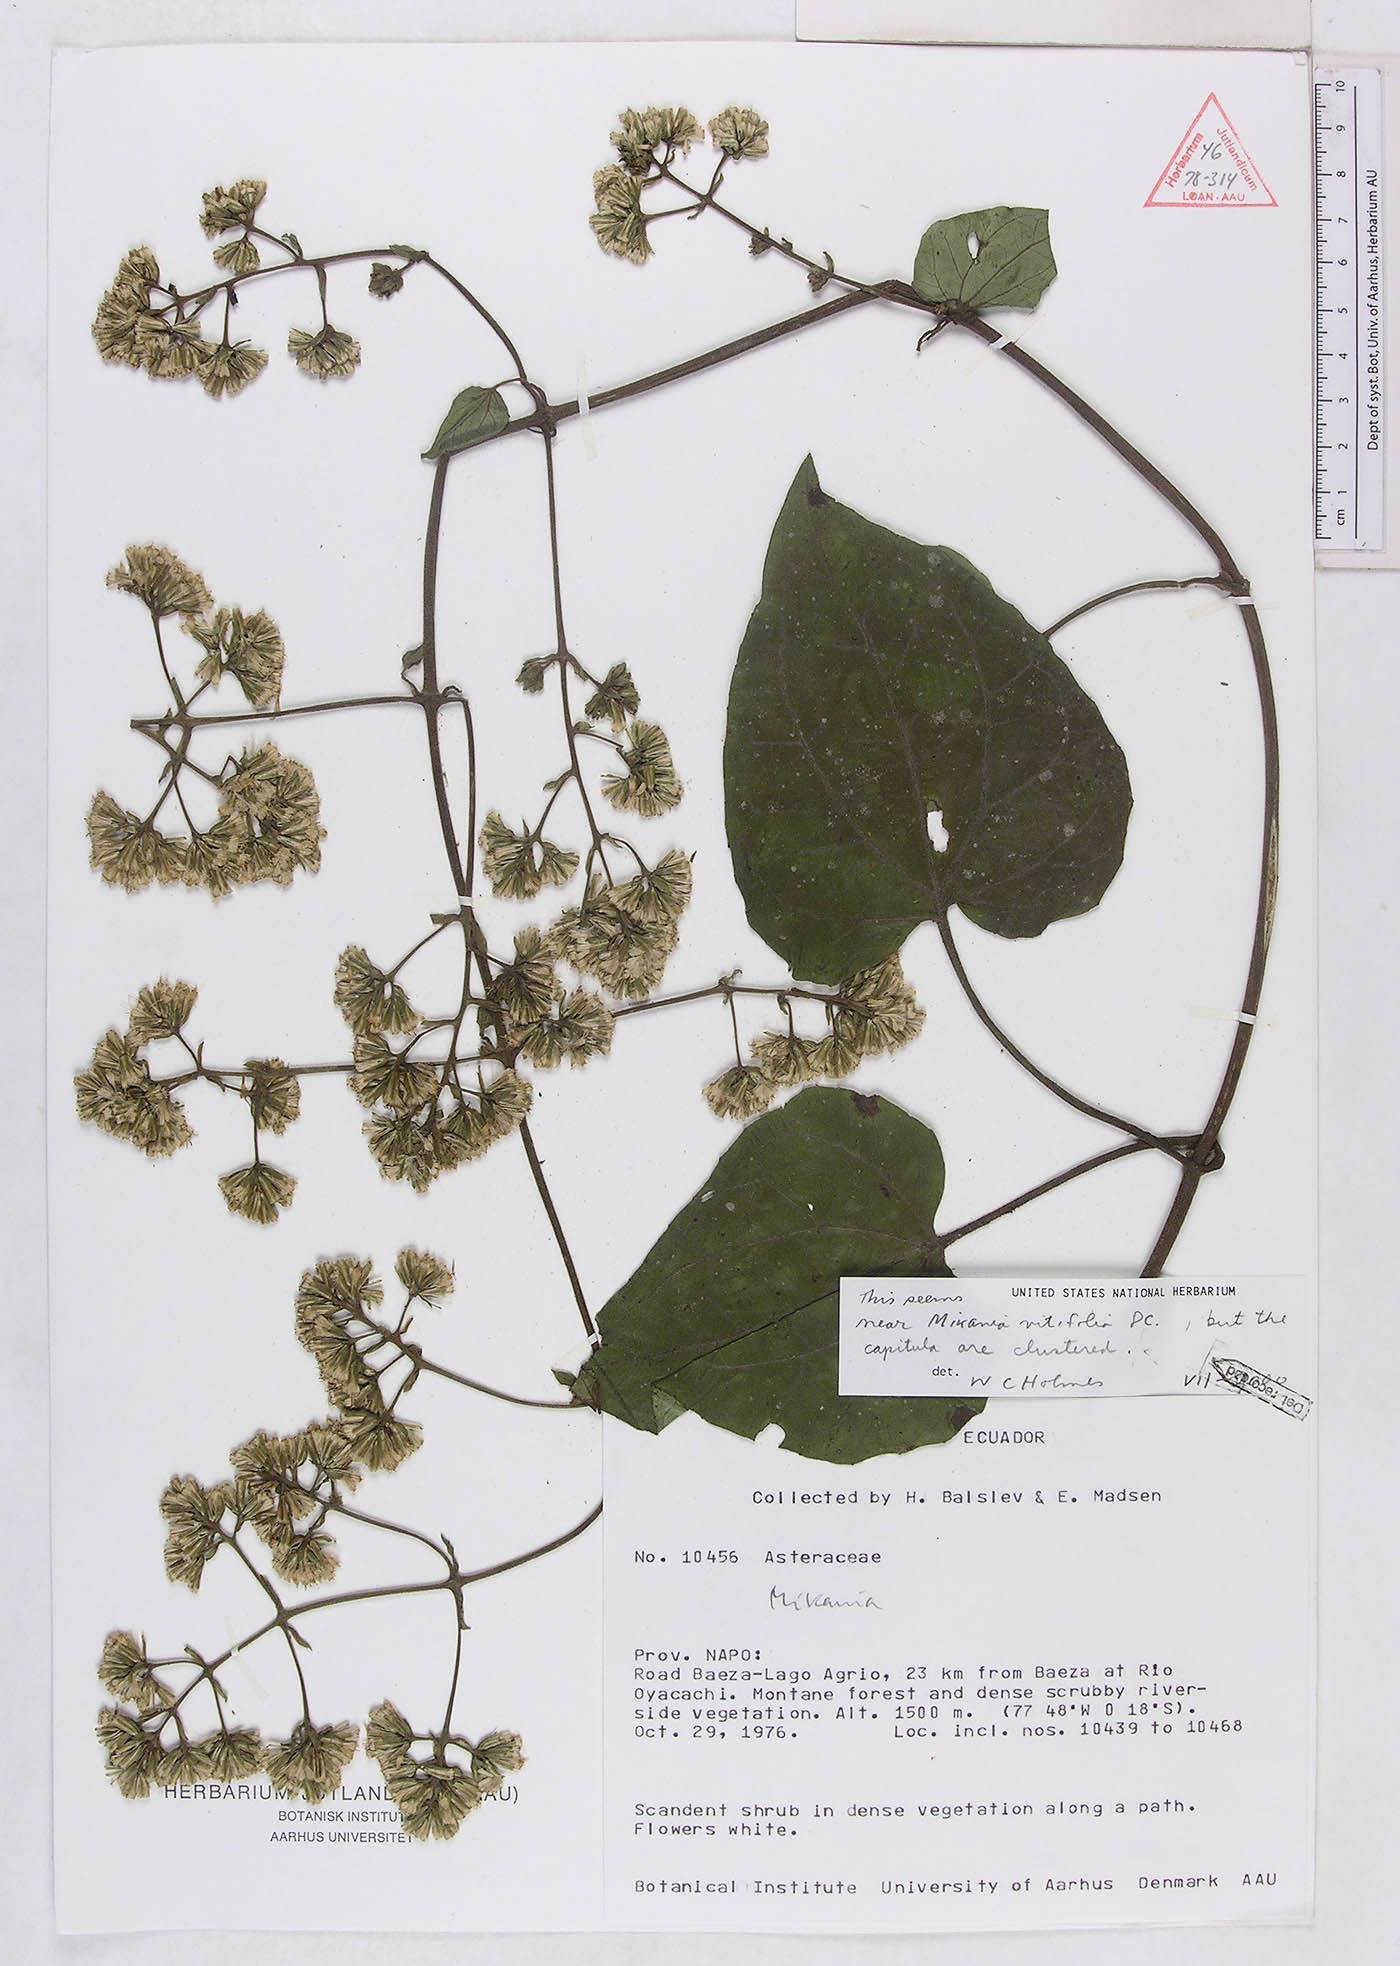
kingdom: Plantae
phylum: Tracheophyta
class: Magnoliopsida
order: Asterales
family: Asteraceae
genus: Mikania
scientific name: Mikania vitifolia
